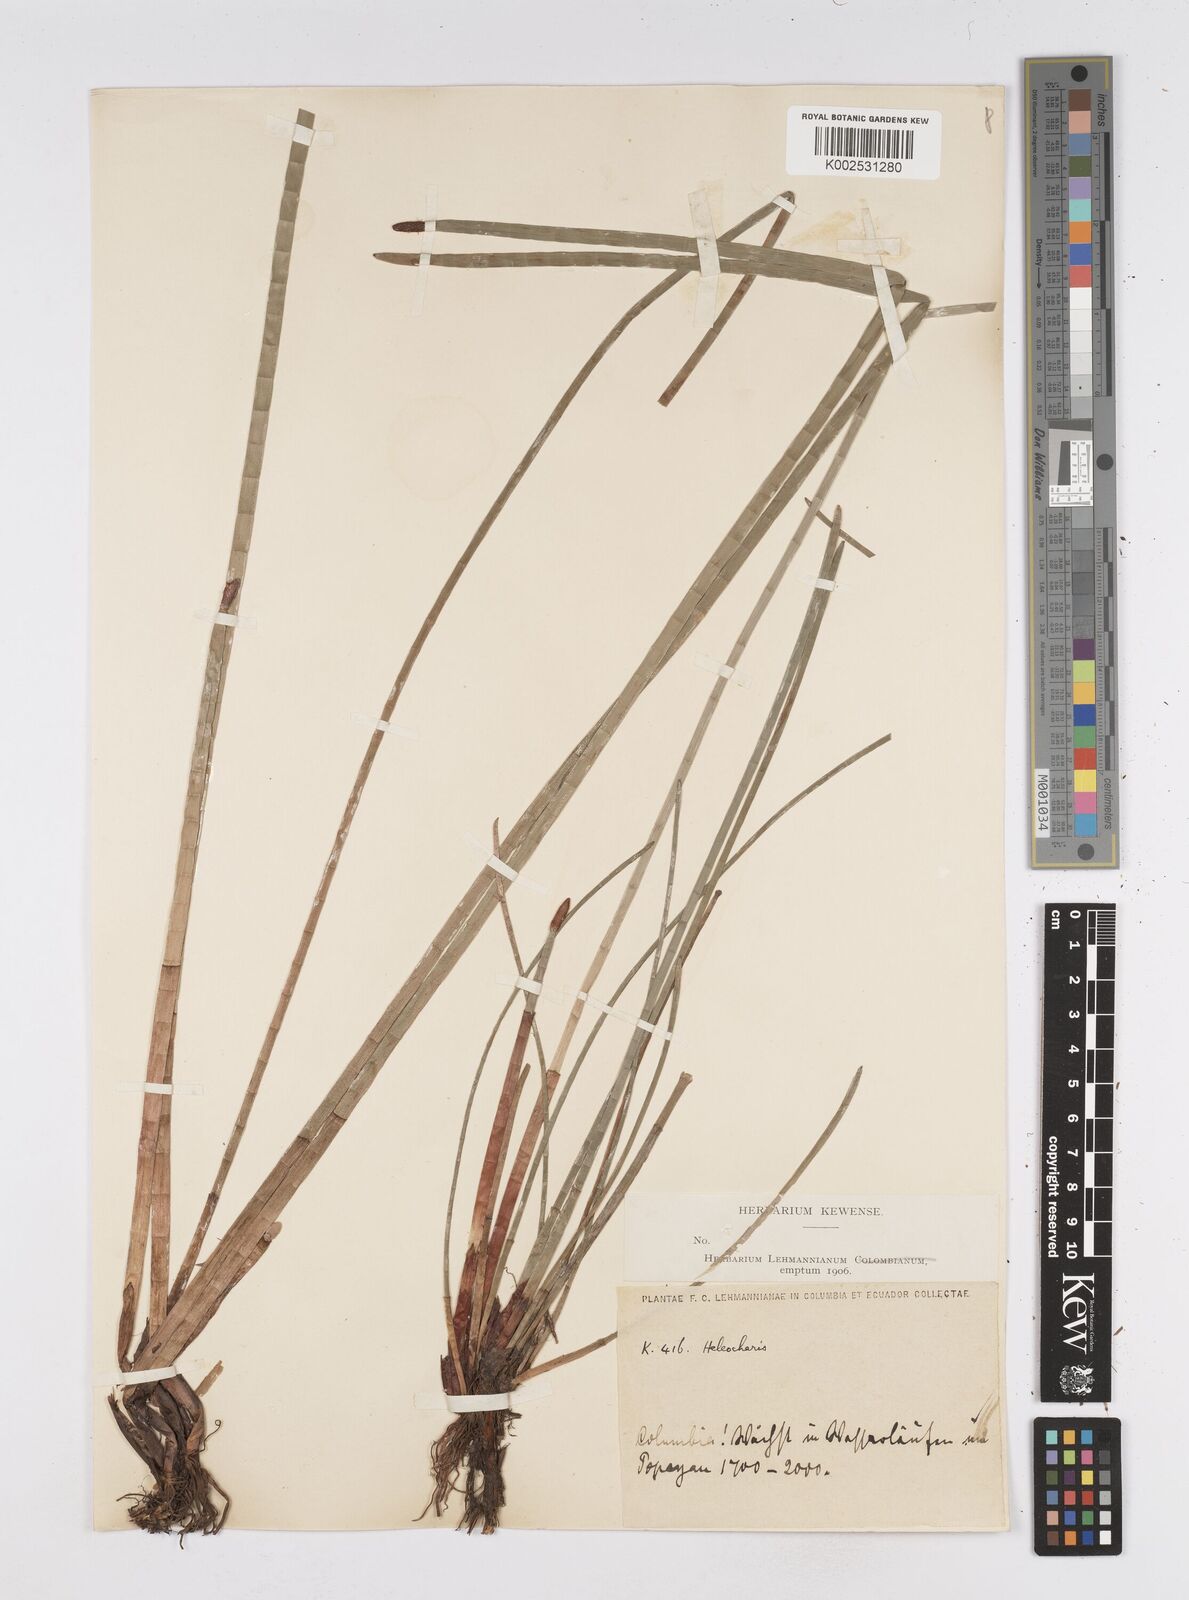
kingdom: Plantae
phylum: Tracheophyta
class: Liliopsida
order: Poales
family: Cyperaceae
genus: Eleocharis
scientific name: Eleocharis elegans
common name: Elegant spike-rush
